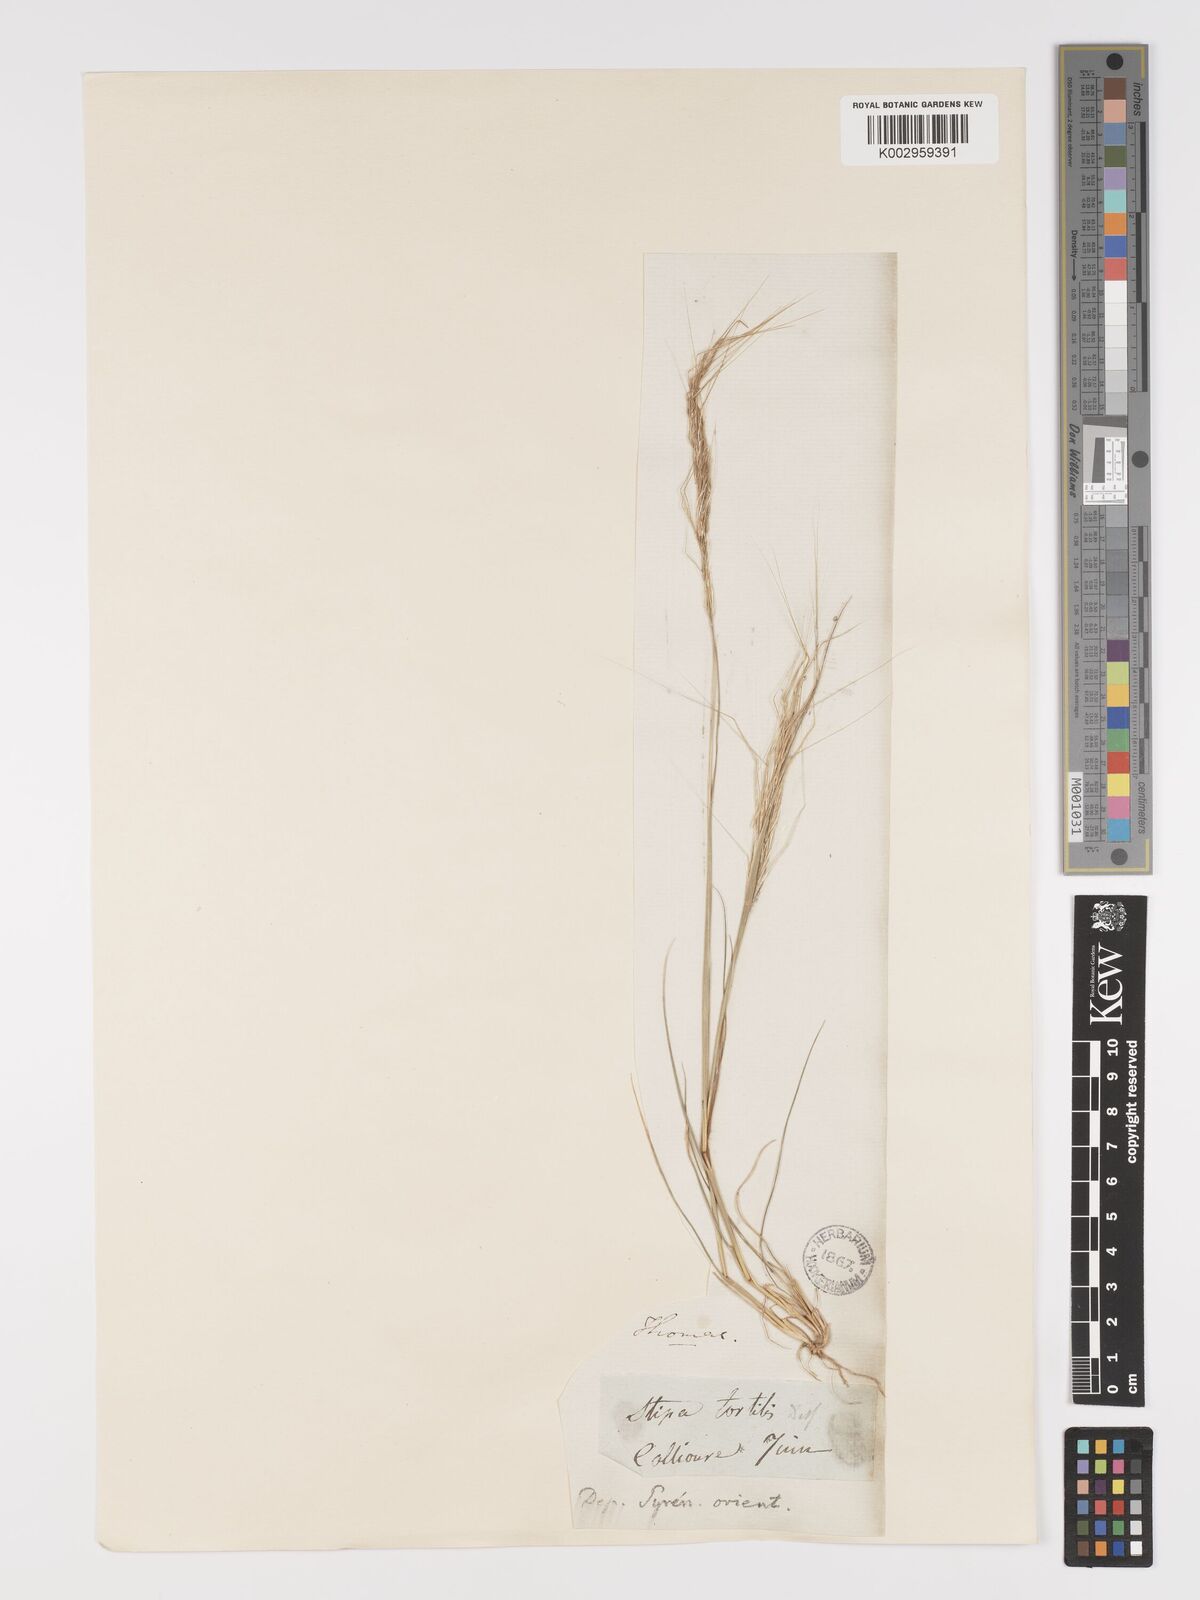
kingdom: Plantae
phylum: Tracheophyta
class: Liliopsida
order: Poales
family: Poaceae
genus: Stipellula
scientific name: Stipellula capensis
